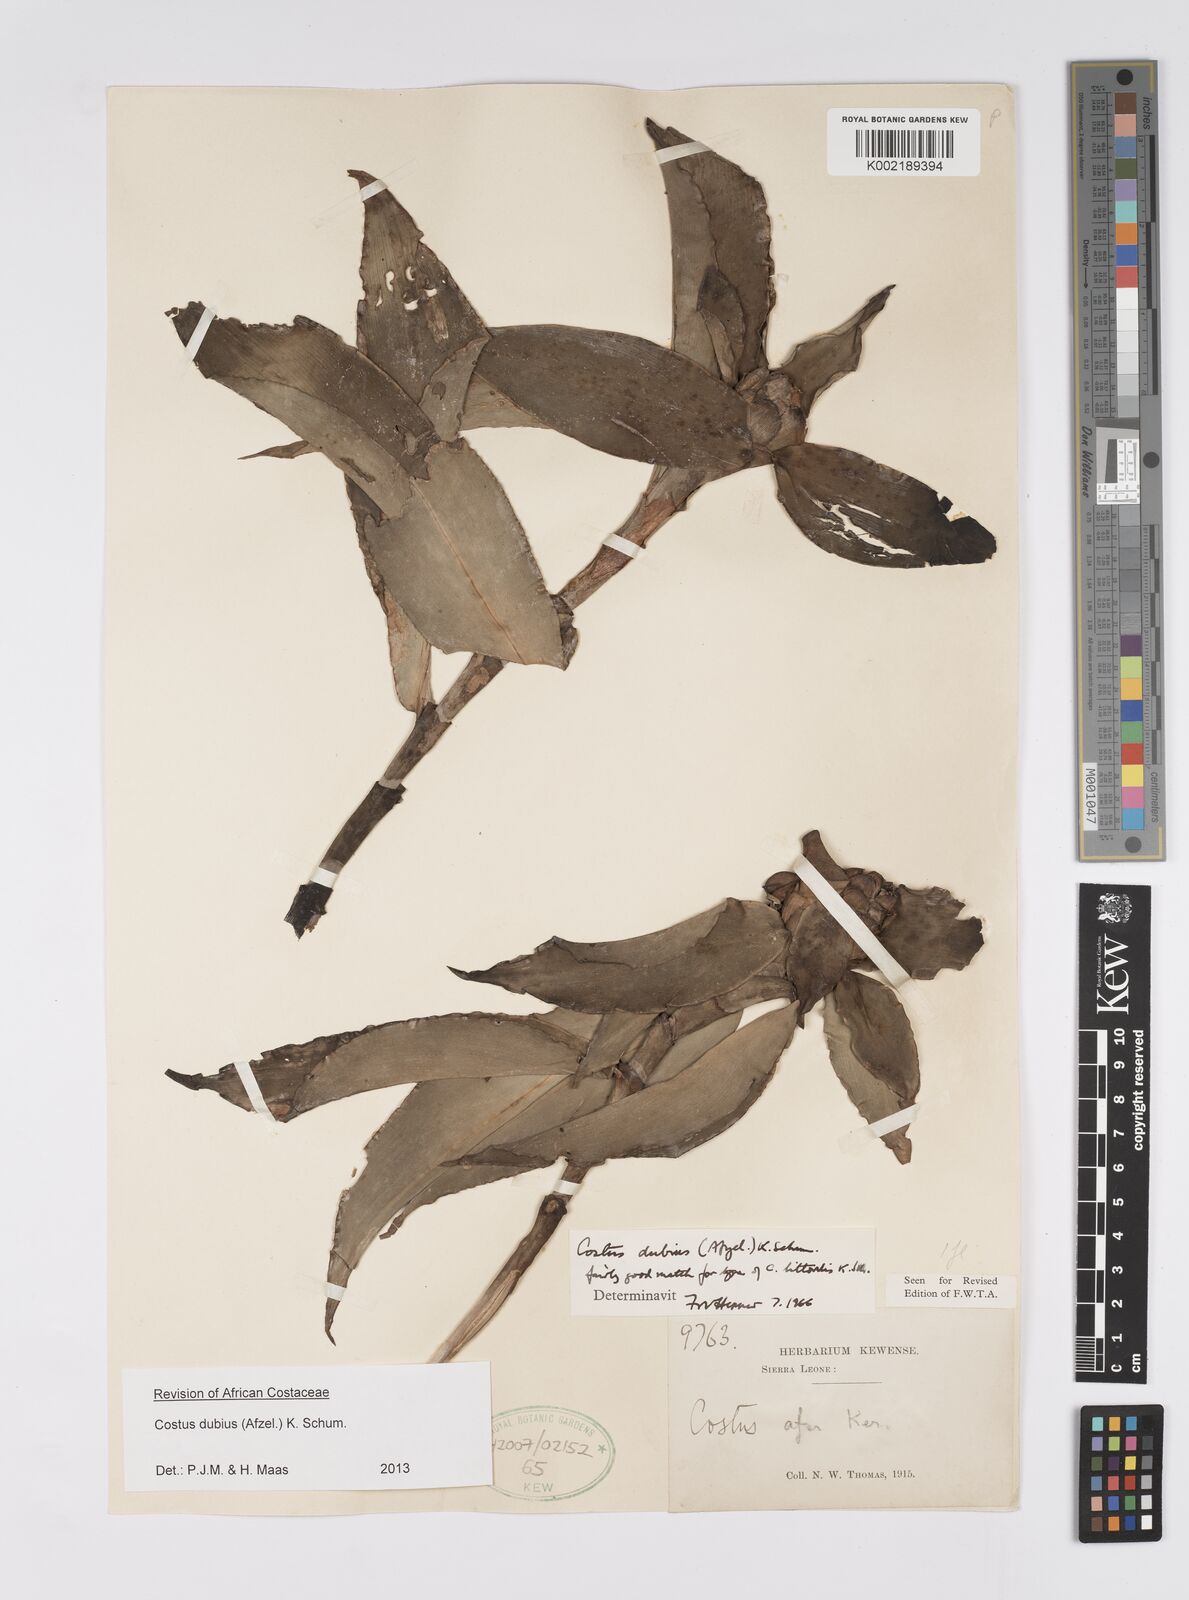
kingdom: Plantae
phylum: Tracheophyta
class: Liliopsida
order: Zingiberales
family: Costaceae
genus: Costus
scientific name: Costus dubius
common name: Costus
